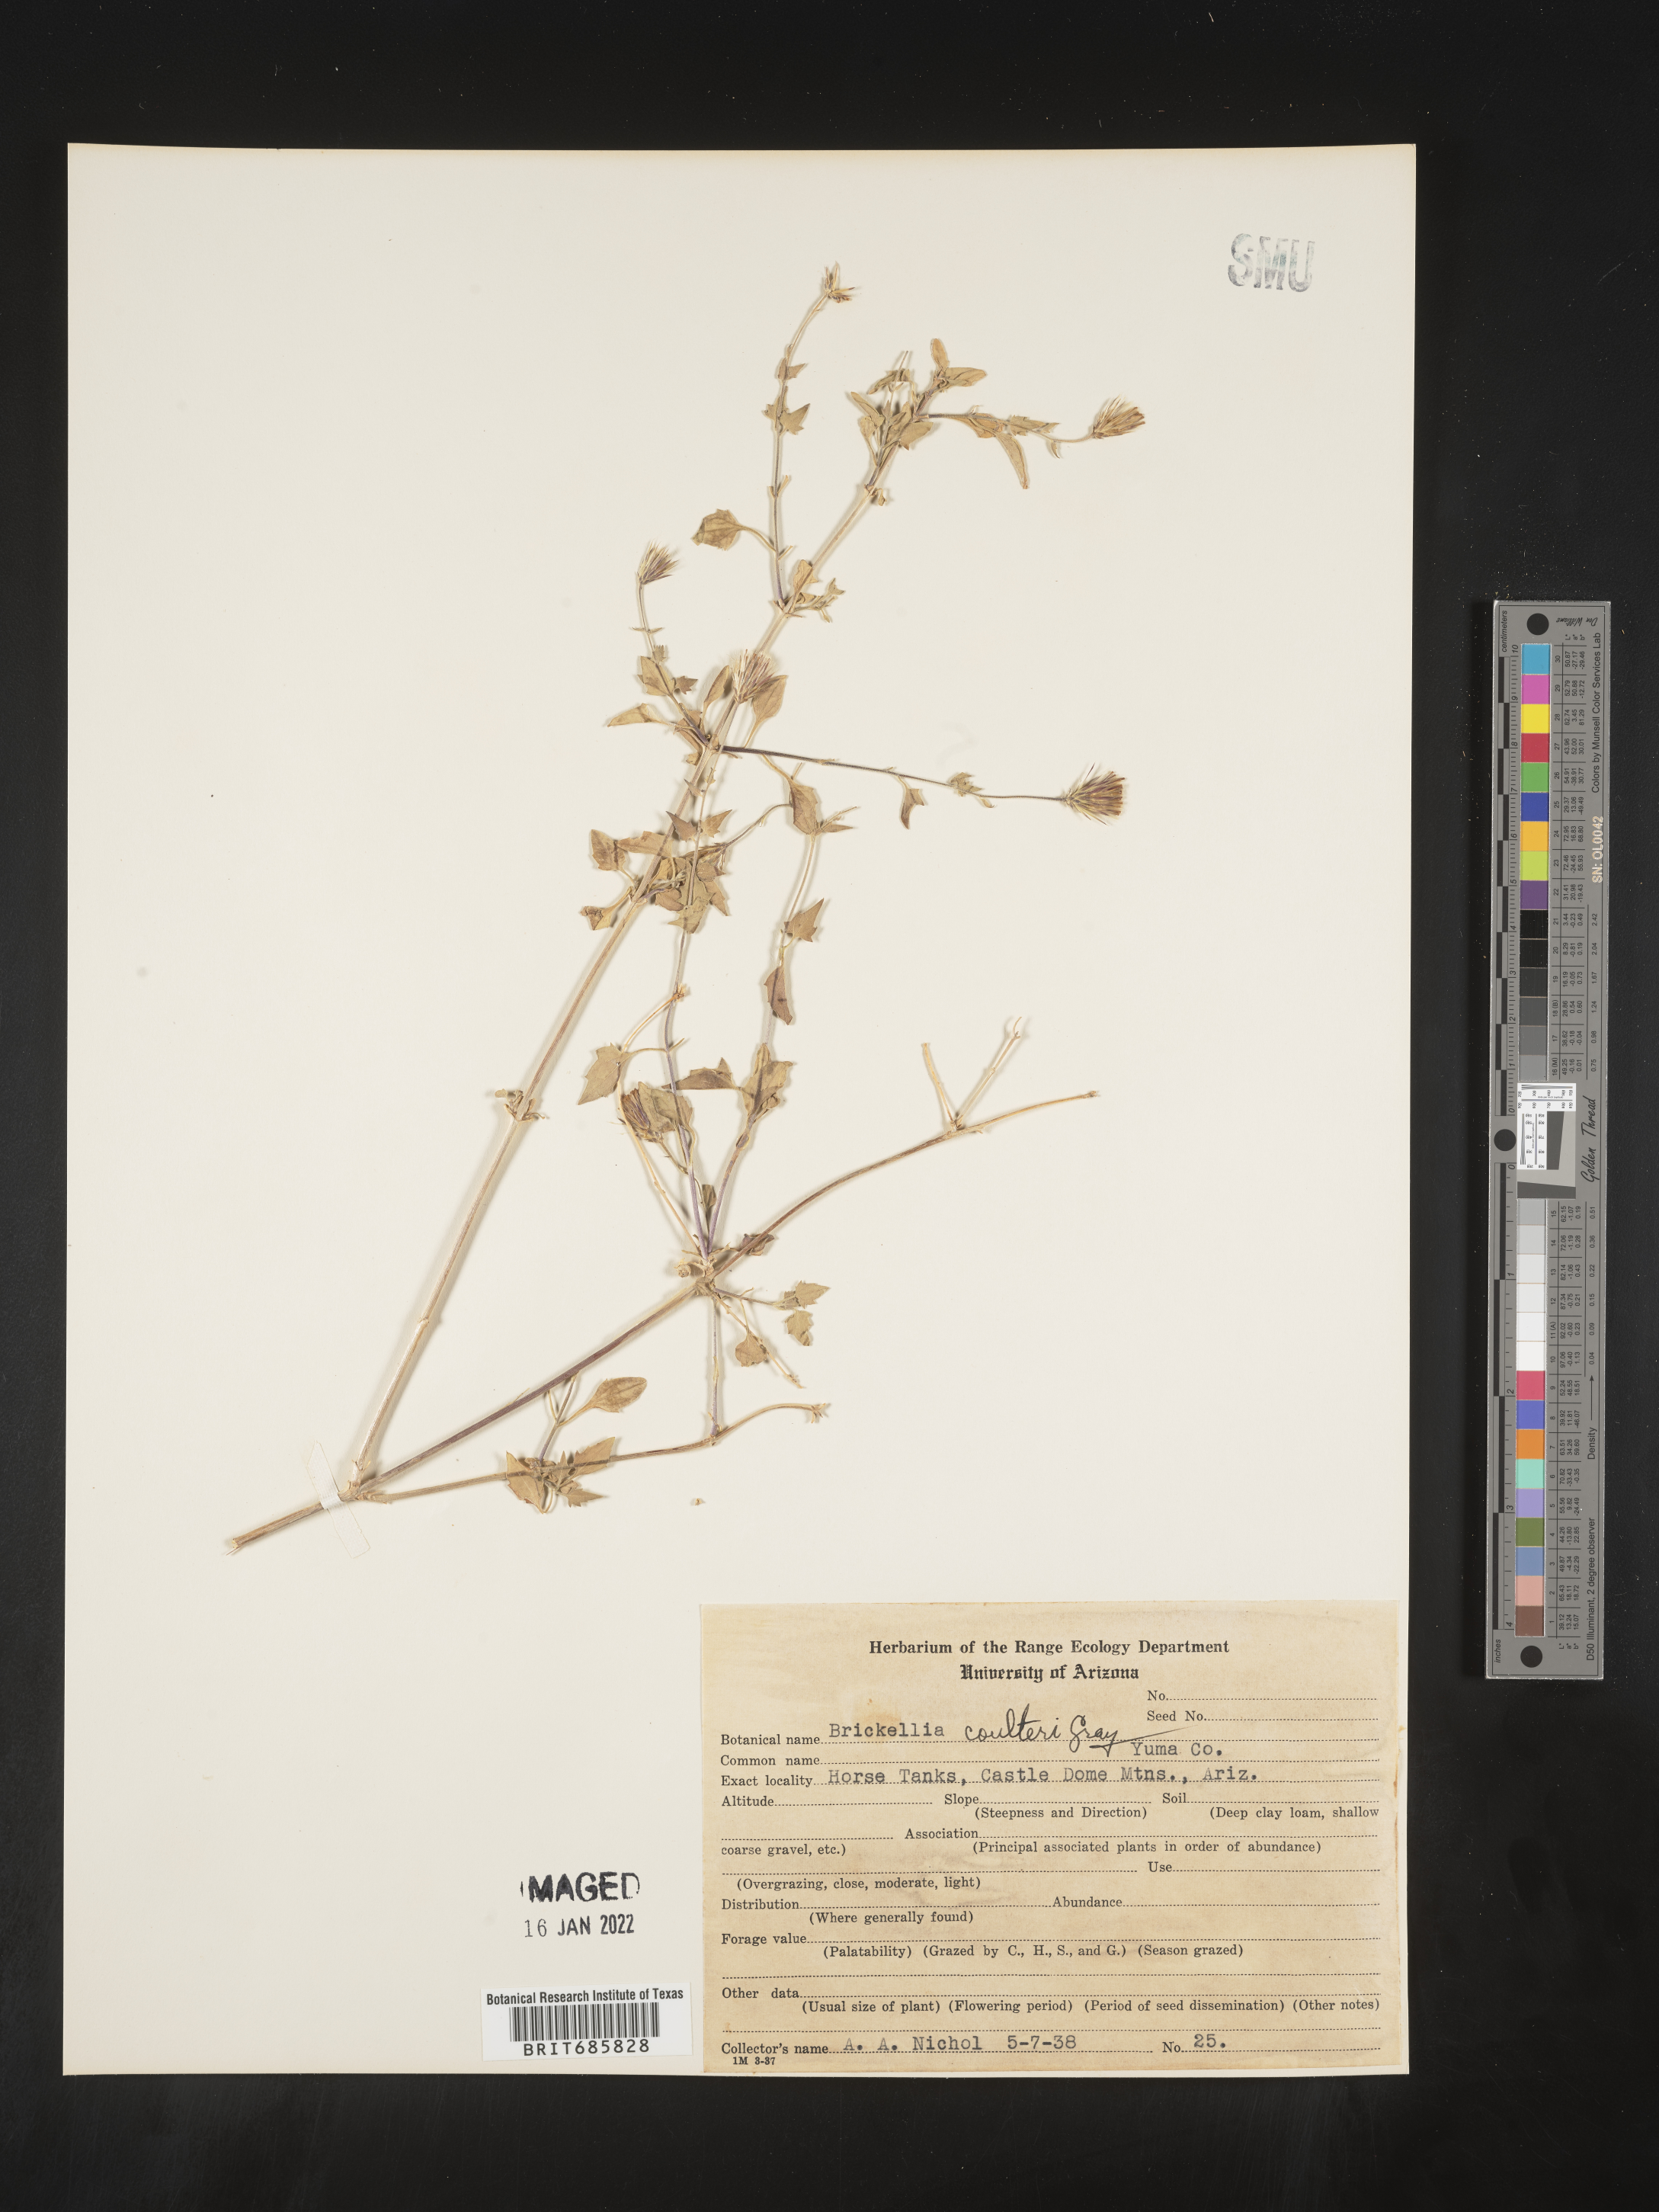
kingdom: Plantae
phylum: Tracheophyta
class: Magnoliopsida
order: Asterales
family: Asteraceae
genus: Brickellia
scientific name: Brickellia coulteri
